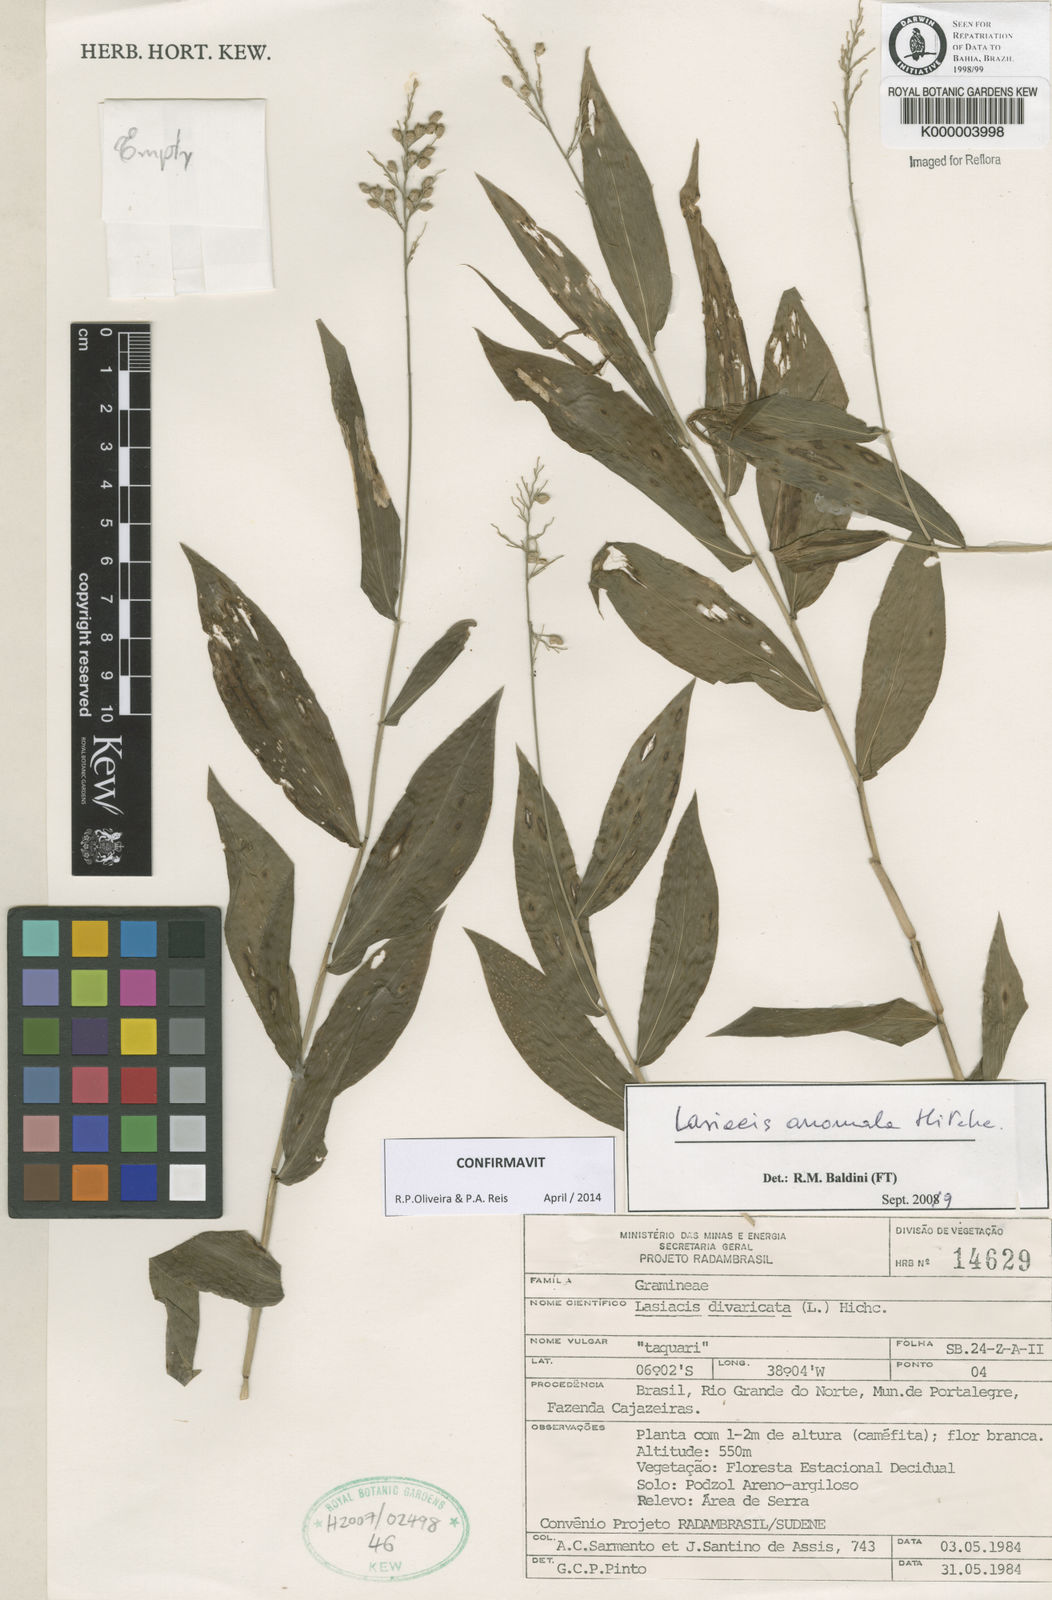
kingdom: Plantae
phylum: Tracheophyta
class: Liliopsida
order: Poales
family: Poaceae
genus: Lasiacis
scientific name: Lasiacis divaricata
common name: Smallcane
